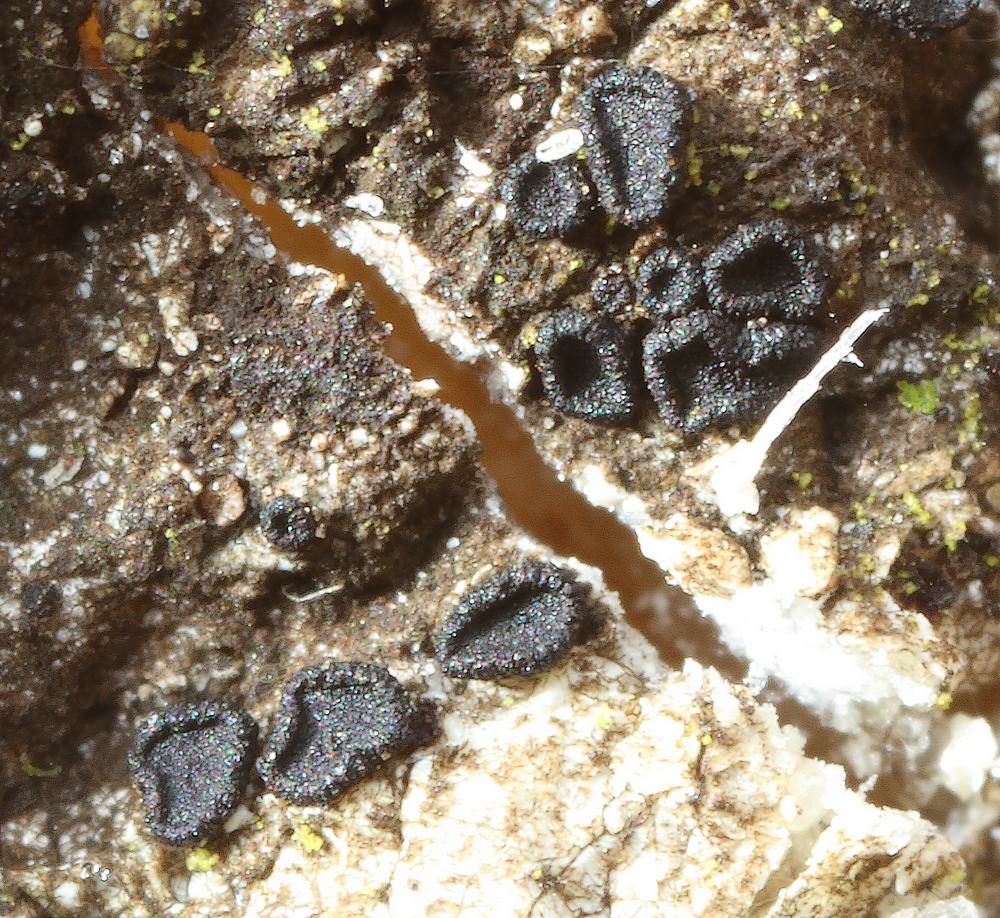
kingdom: Fungi
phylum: Ascomycota
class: Sareomycetes
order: Sareales
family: Sareaceae
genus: Sarea
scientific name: Sarea difformis
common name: mørk harpiksskive
